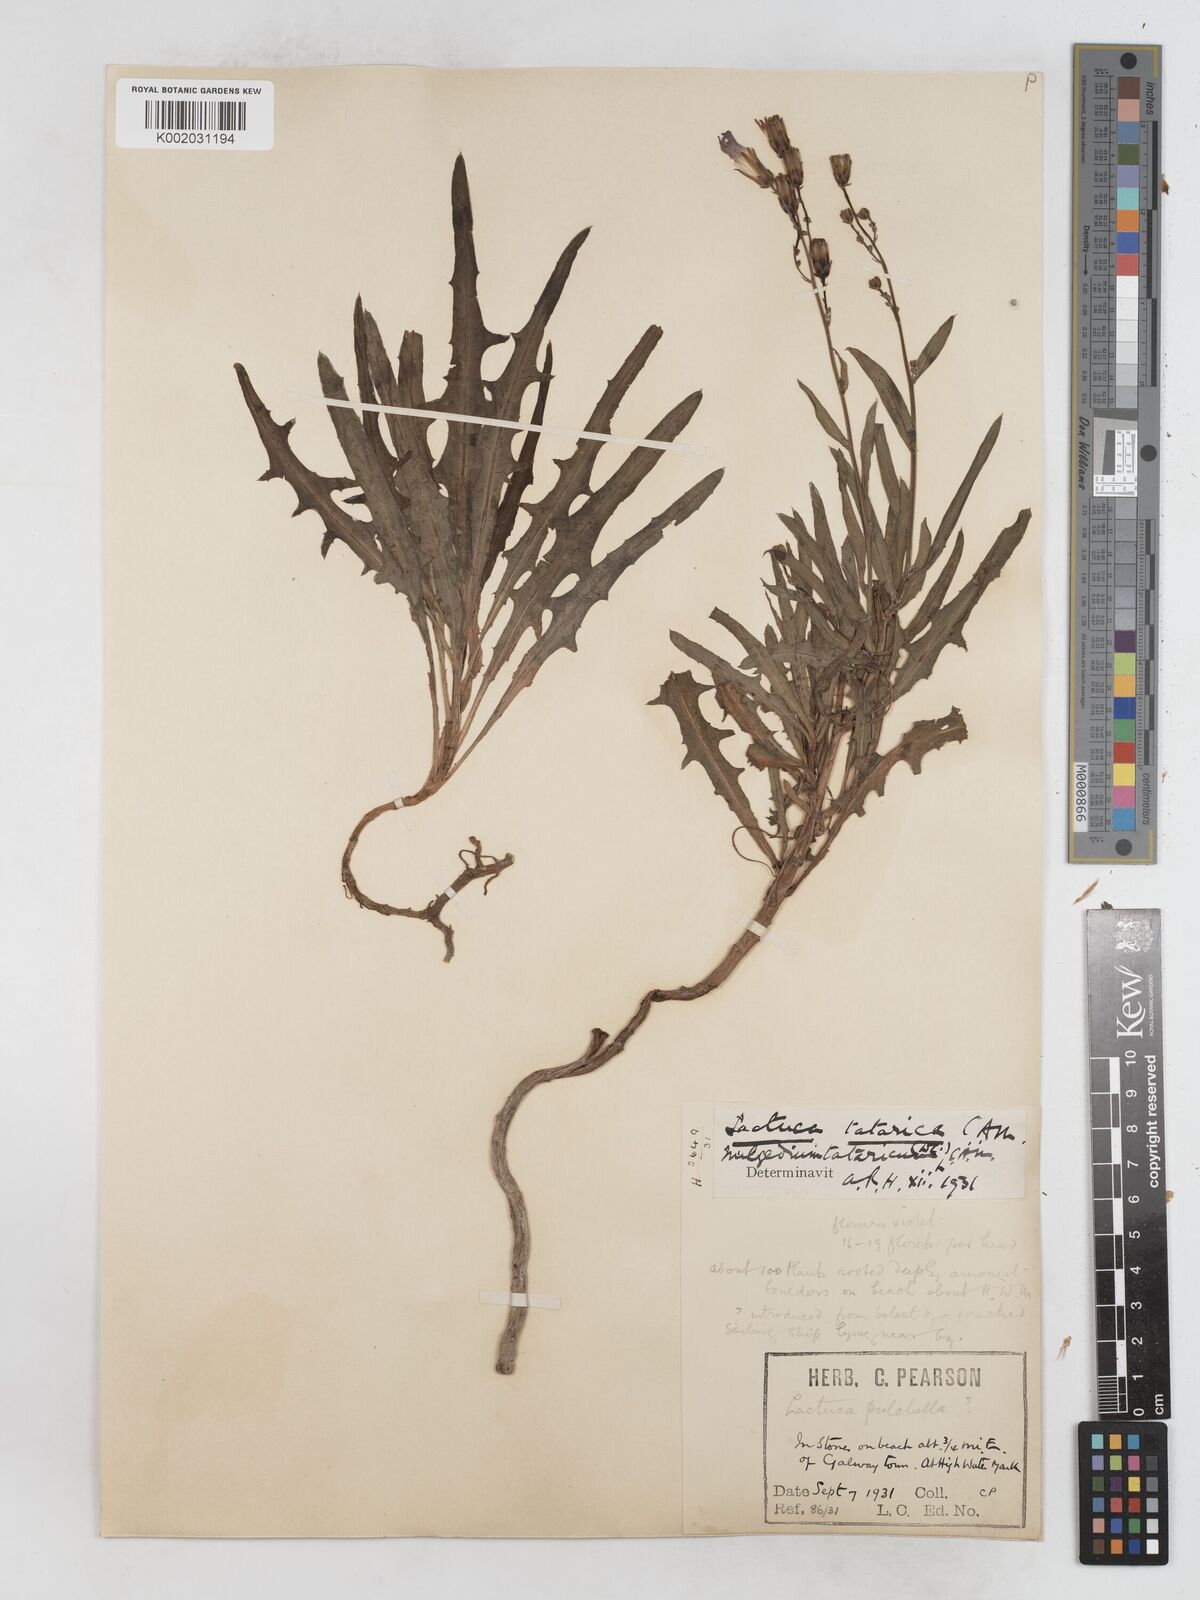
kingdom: Plantae
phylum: Tracheophyta
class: Magnoliopsida
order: Asterales
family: Asteraceae
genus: Lactuca
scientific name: Lactuca tatarica
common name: Blue lettuce
